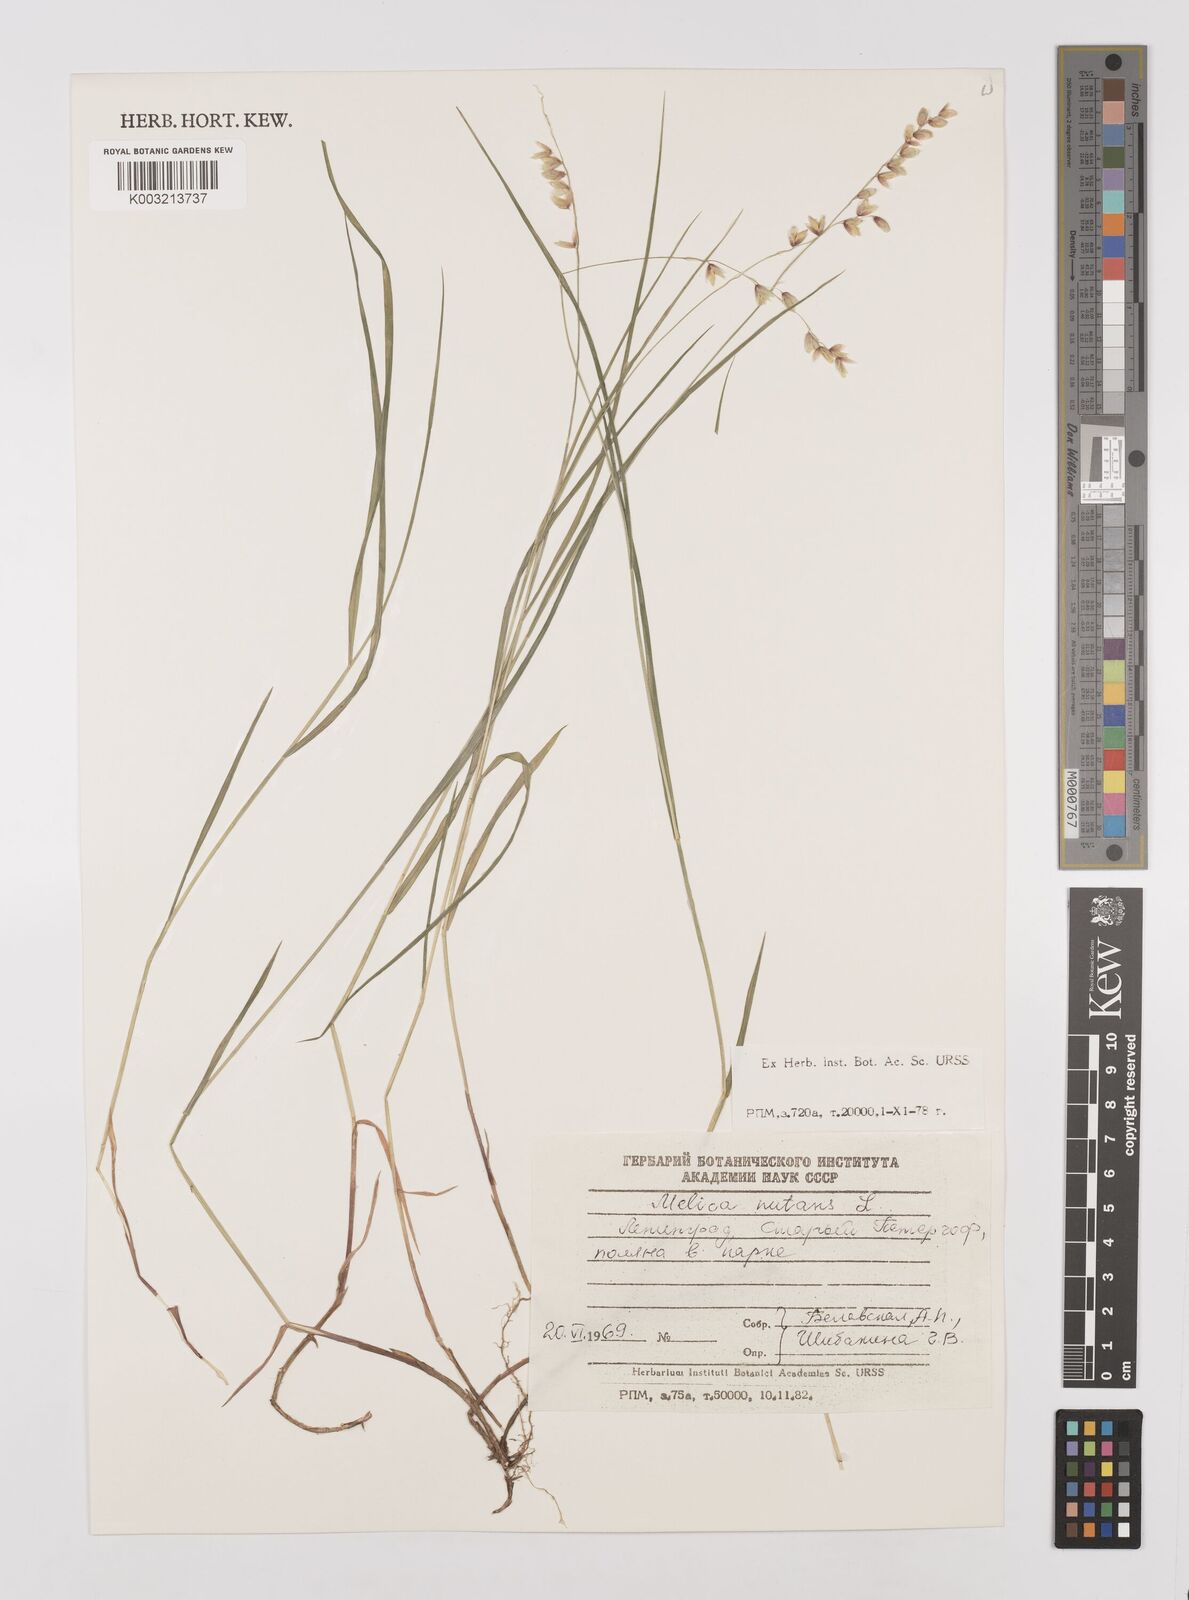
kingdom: Plantae
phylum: Tracheophyta
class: Liliopsida
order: Poales
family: Poaceae
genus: Melica
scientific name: Melica
